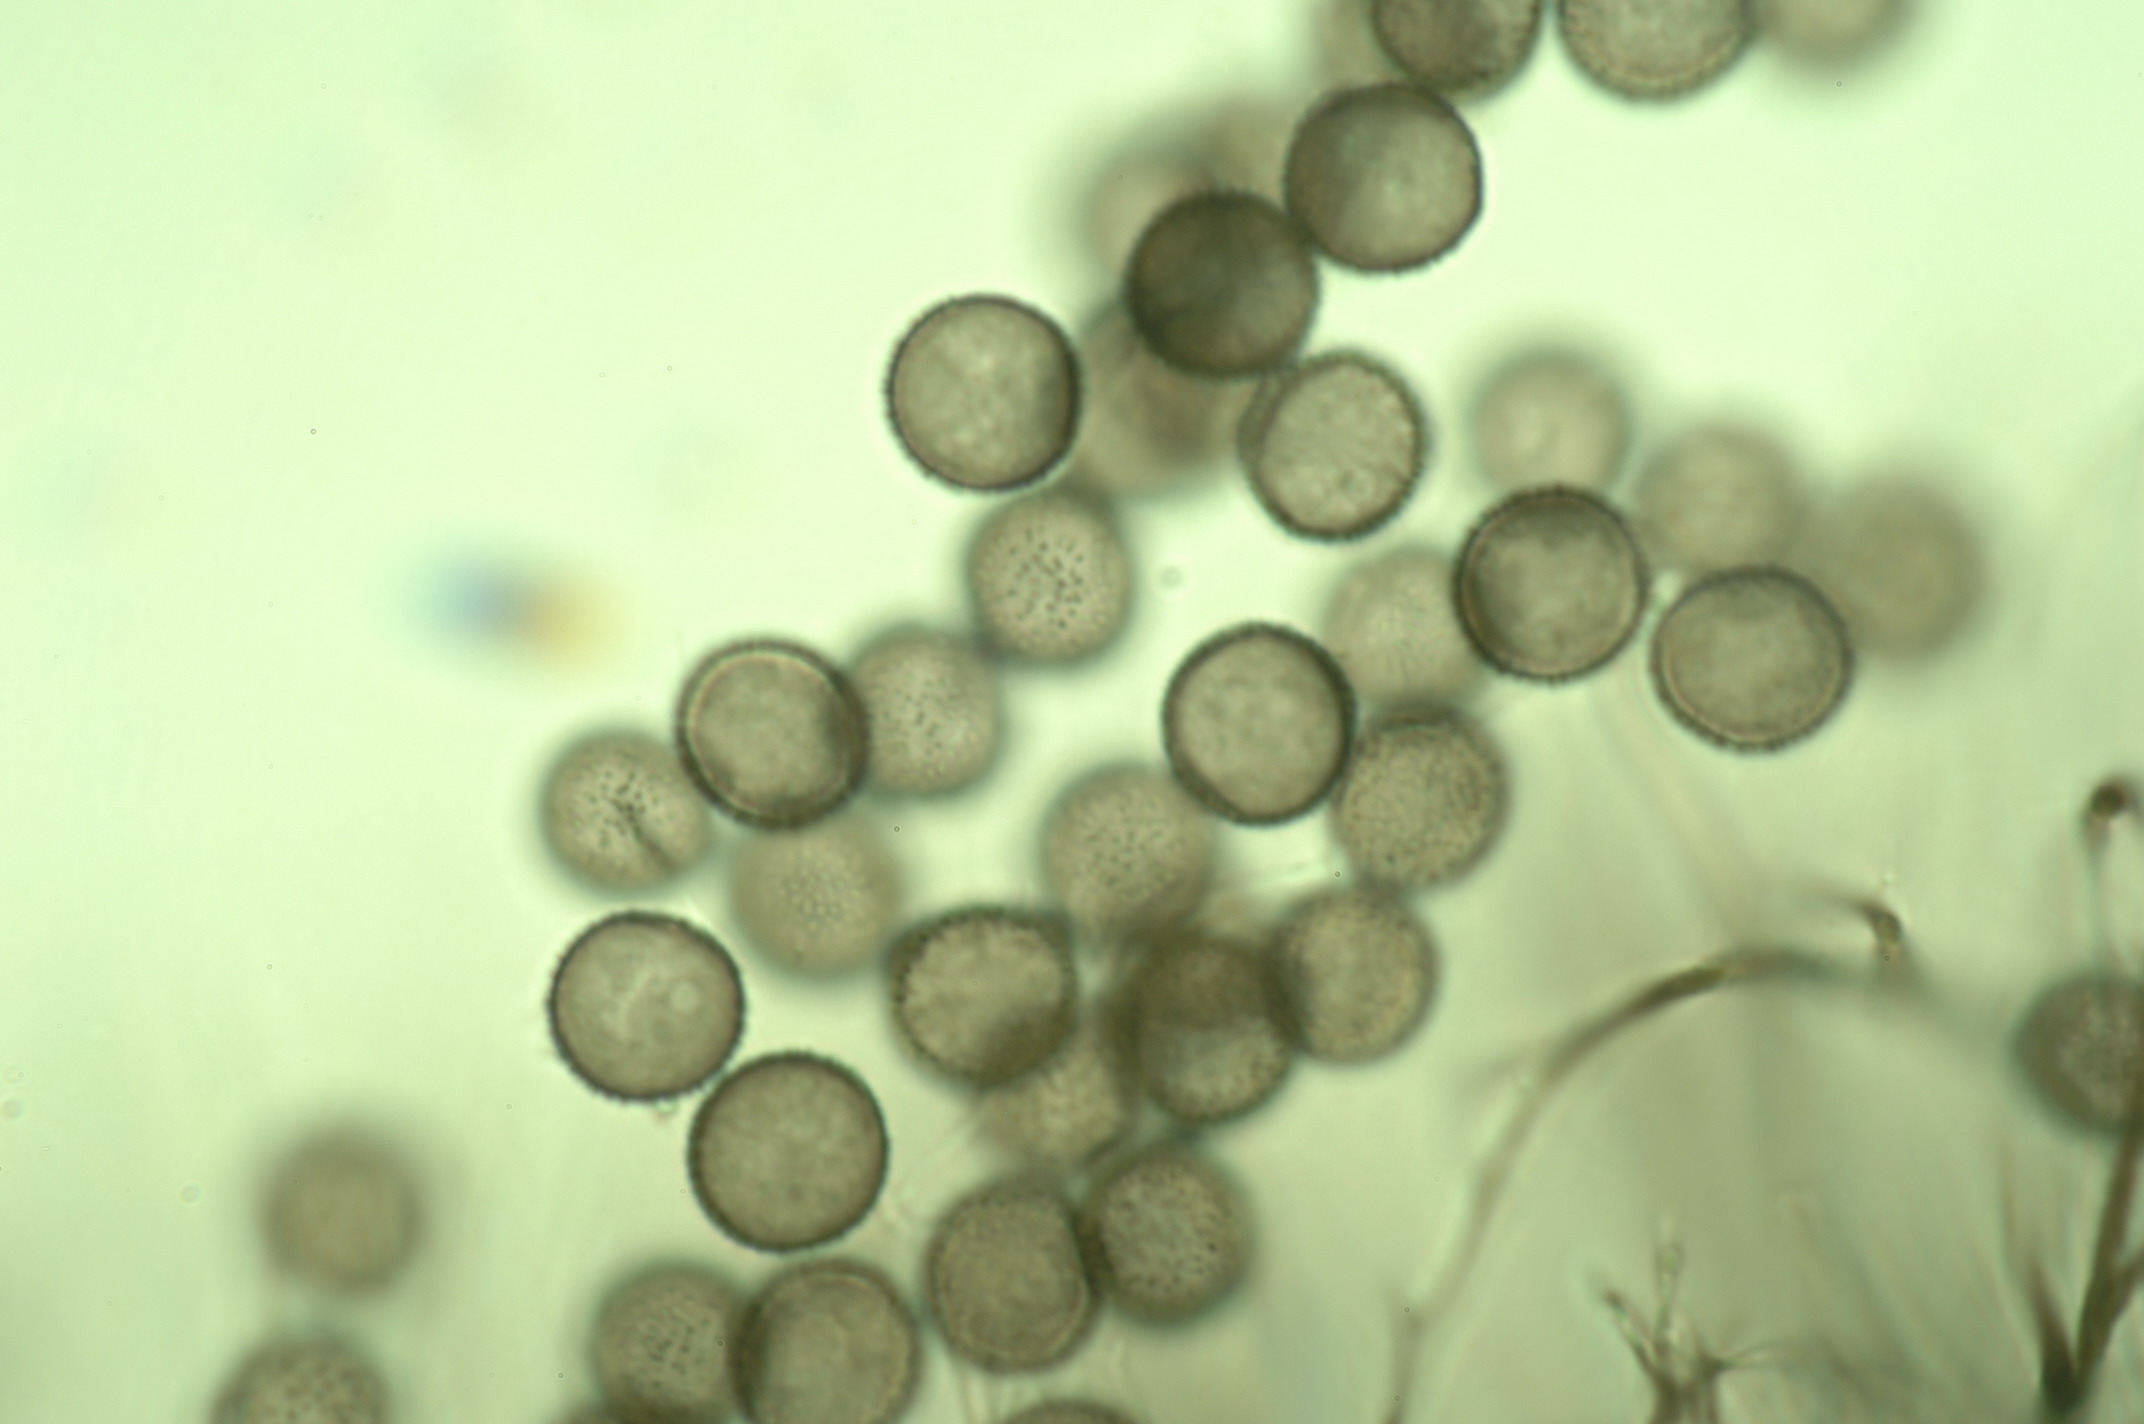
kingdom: Protozoa
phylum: Mycetozoa
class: Myxomycetes
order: Stemonitidales
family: Stemonitidaceae
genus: Lamproderma
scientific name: Lamproderma columbinum
